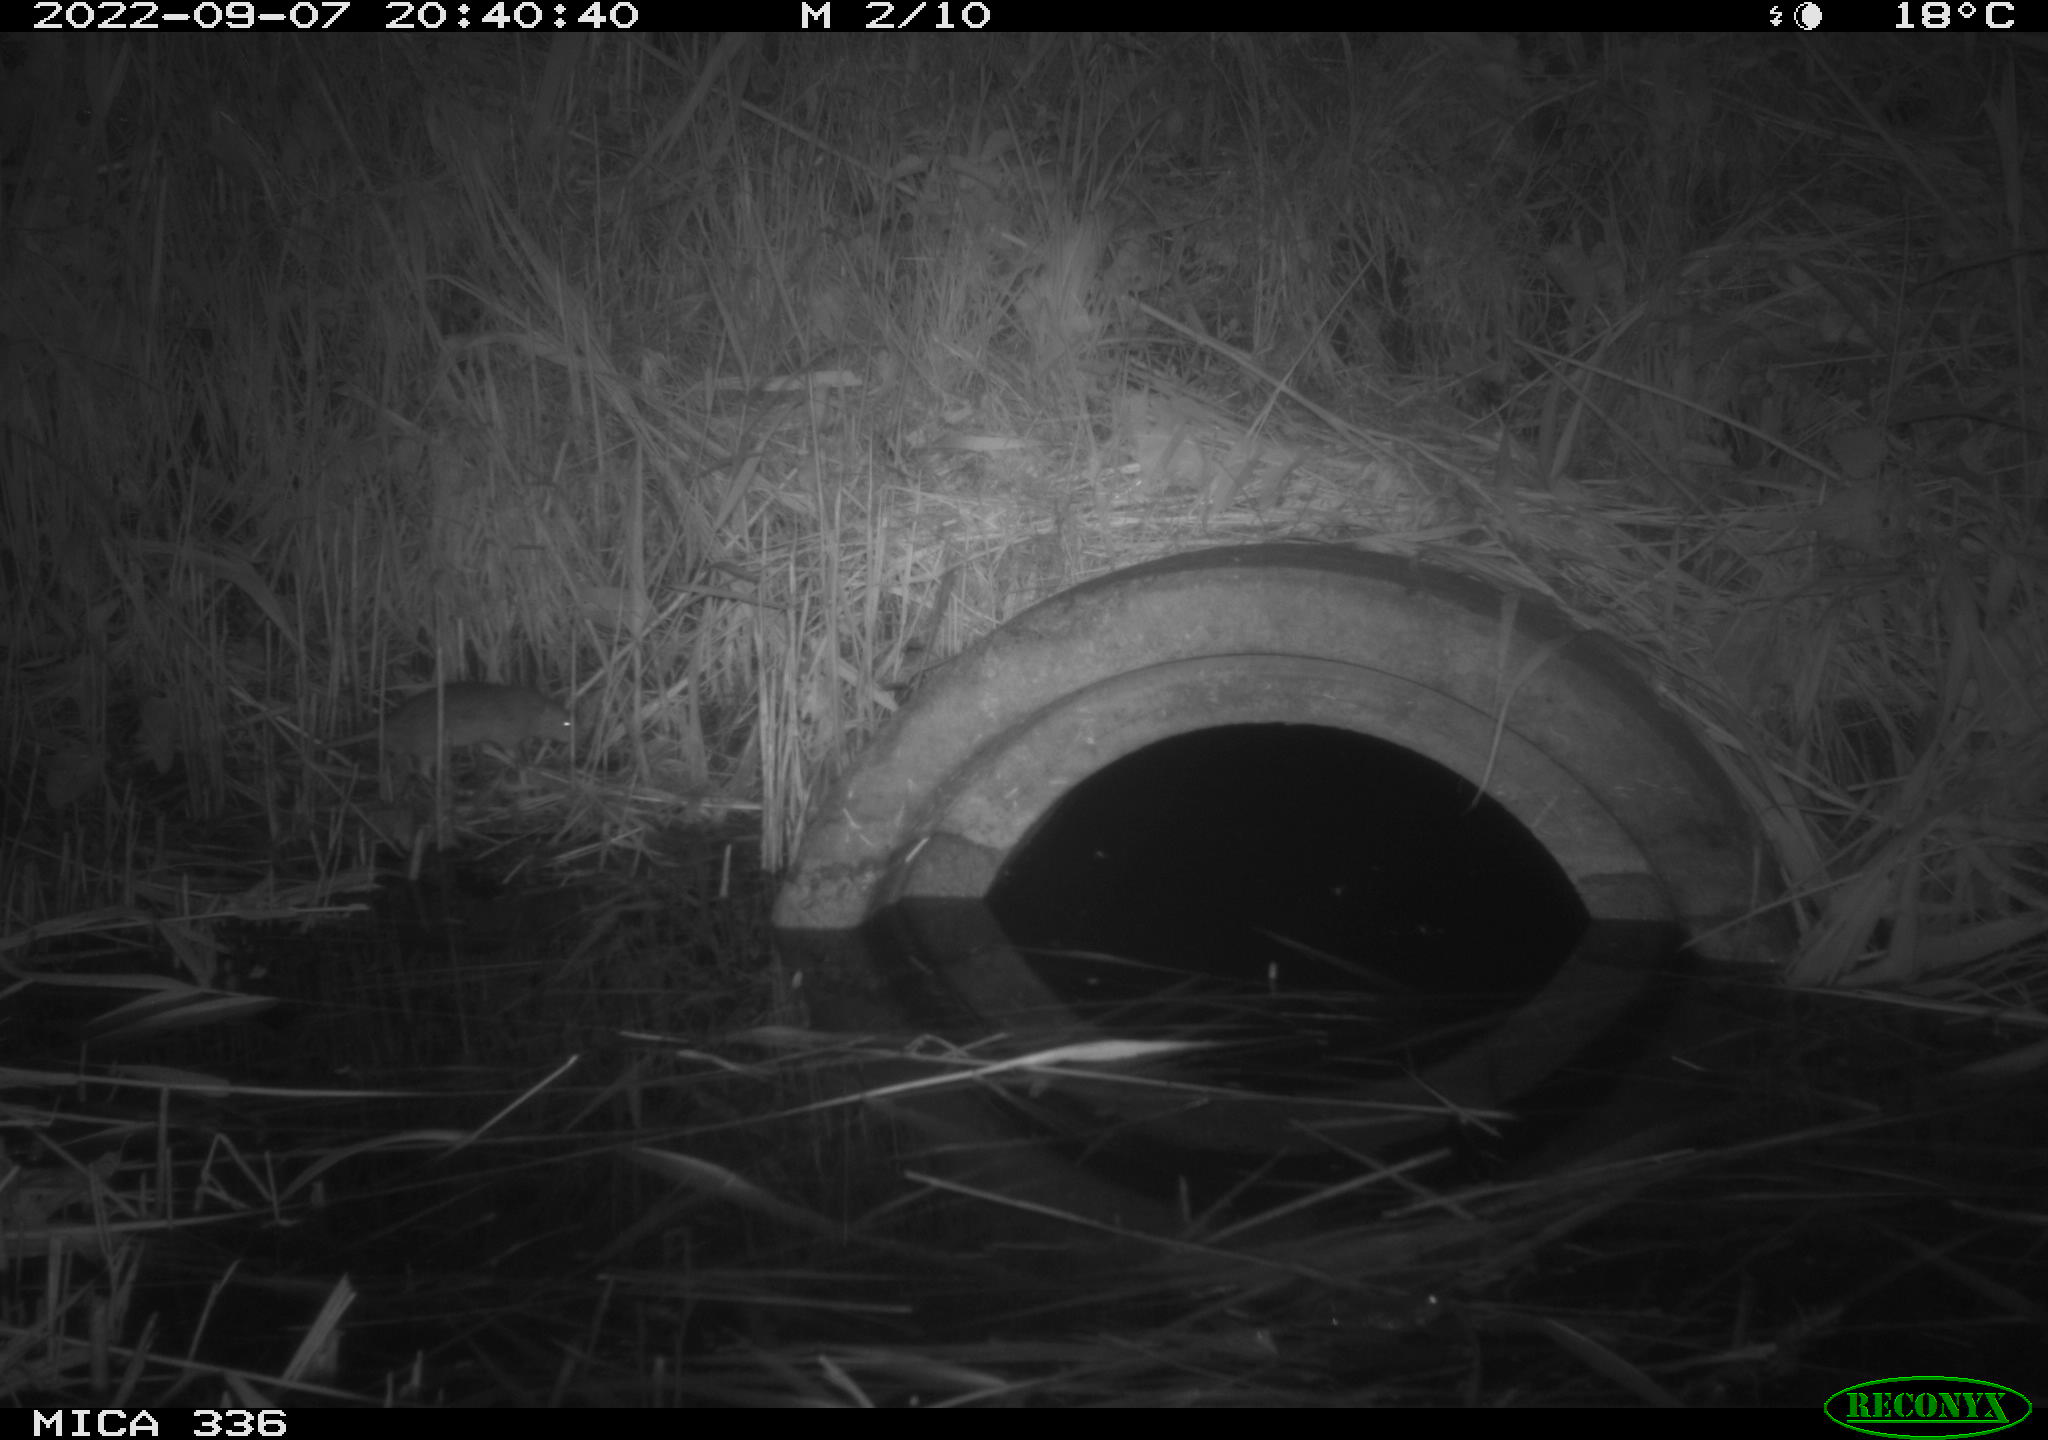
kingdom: Animalia
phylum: Chordata
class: Mammalia
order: Rodentia
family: Muridae
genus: Rattus
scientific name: Rattus norvegicus
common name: Brown rat
